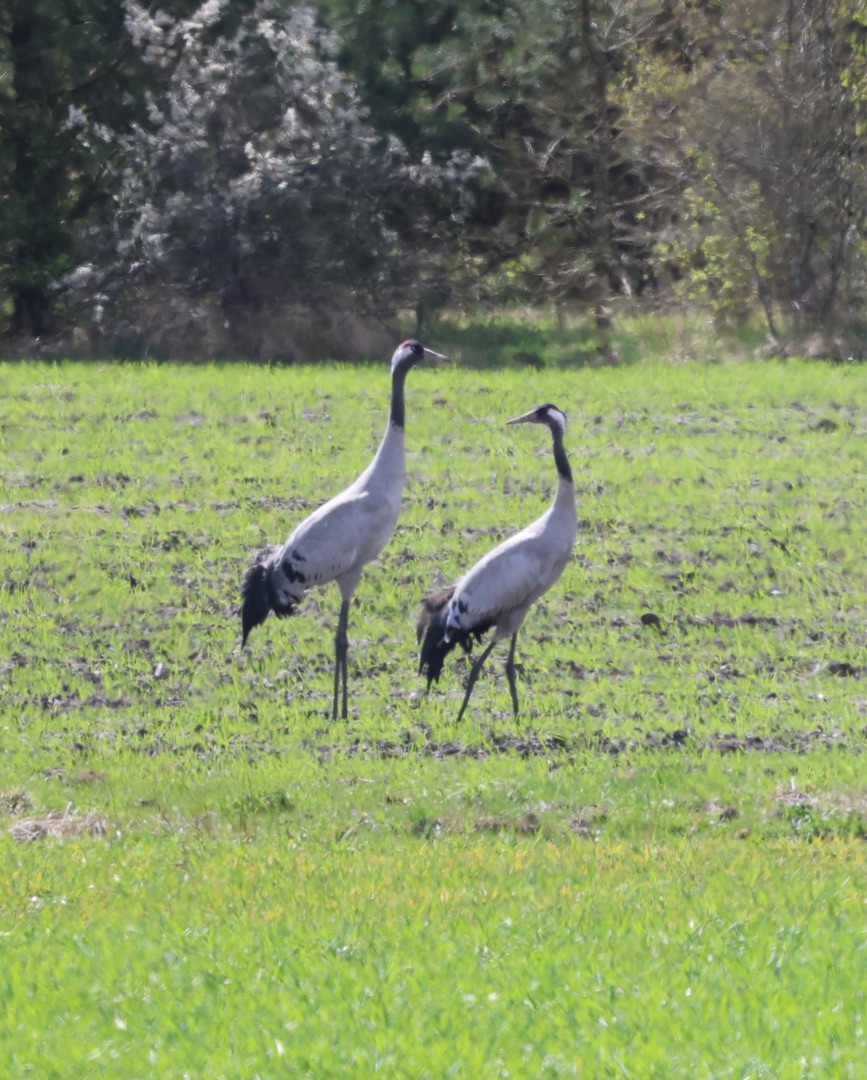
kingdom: Animalia
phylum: Chordata
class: Aves
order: Gruiformes
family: Gruidae
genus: Grus
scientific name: Grus grus
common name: Trane
